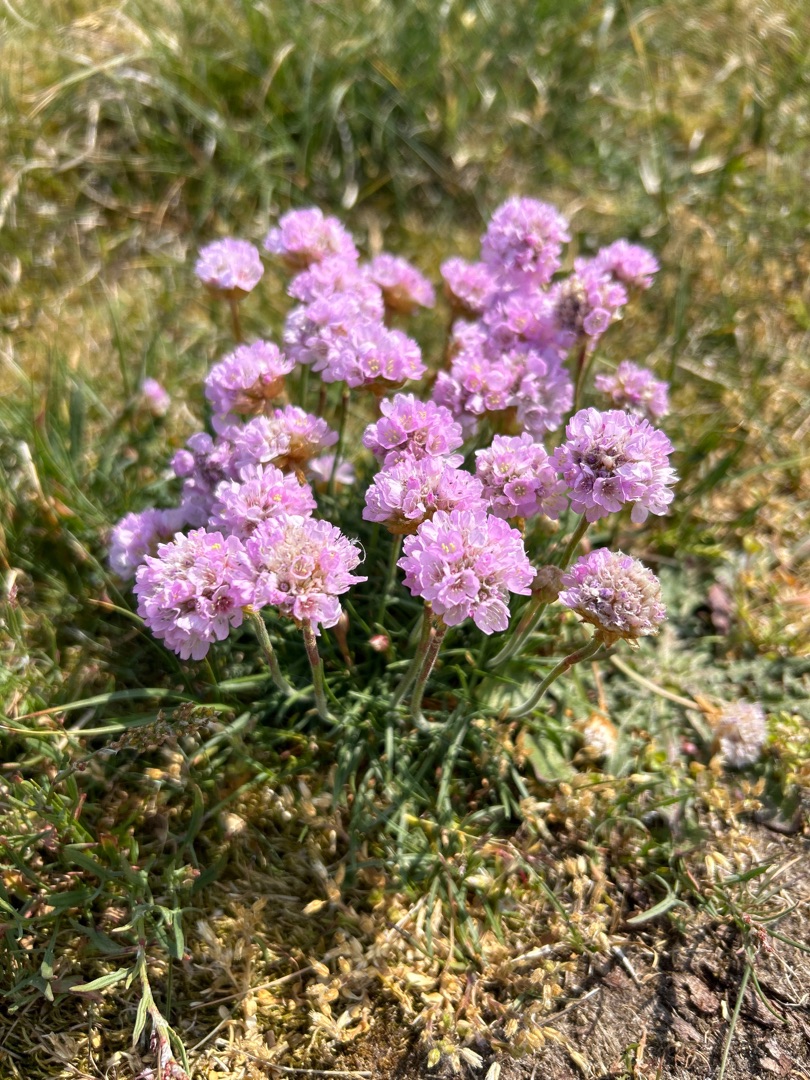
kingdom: Plantae
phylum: Tracheophyta
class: Magnoliopsida
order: Caryophyllales
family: Plumbaginaceae
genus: Armeria
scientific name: Armeria maritima
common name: Engelskgræs
